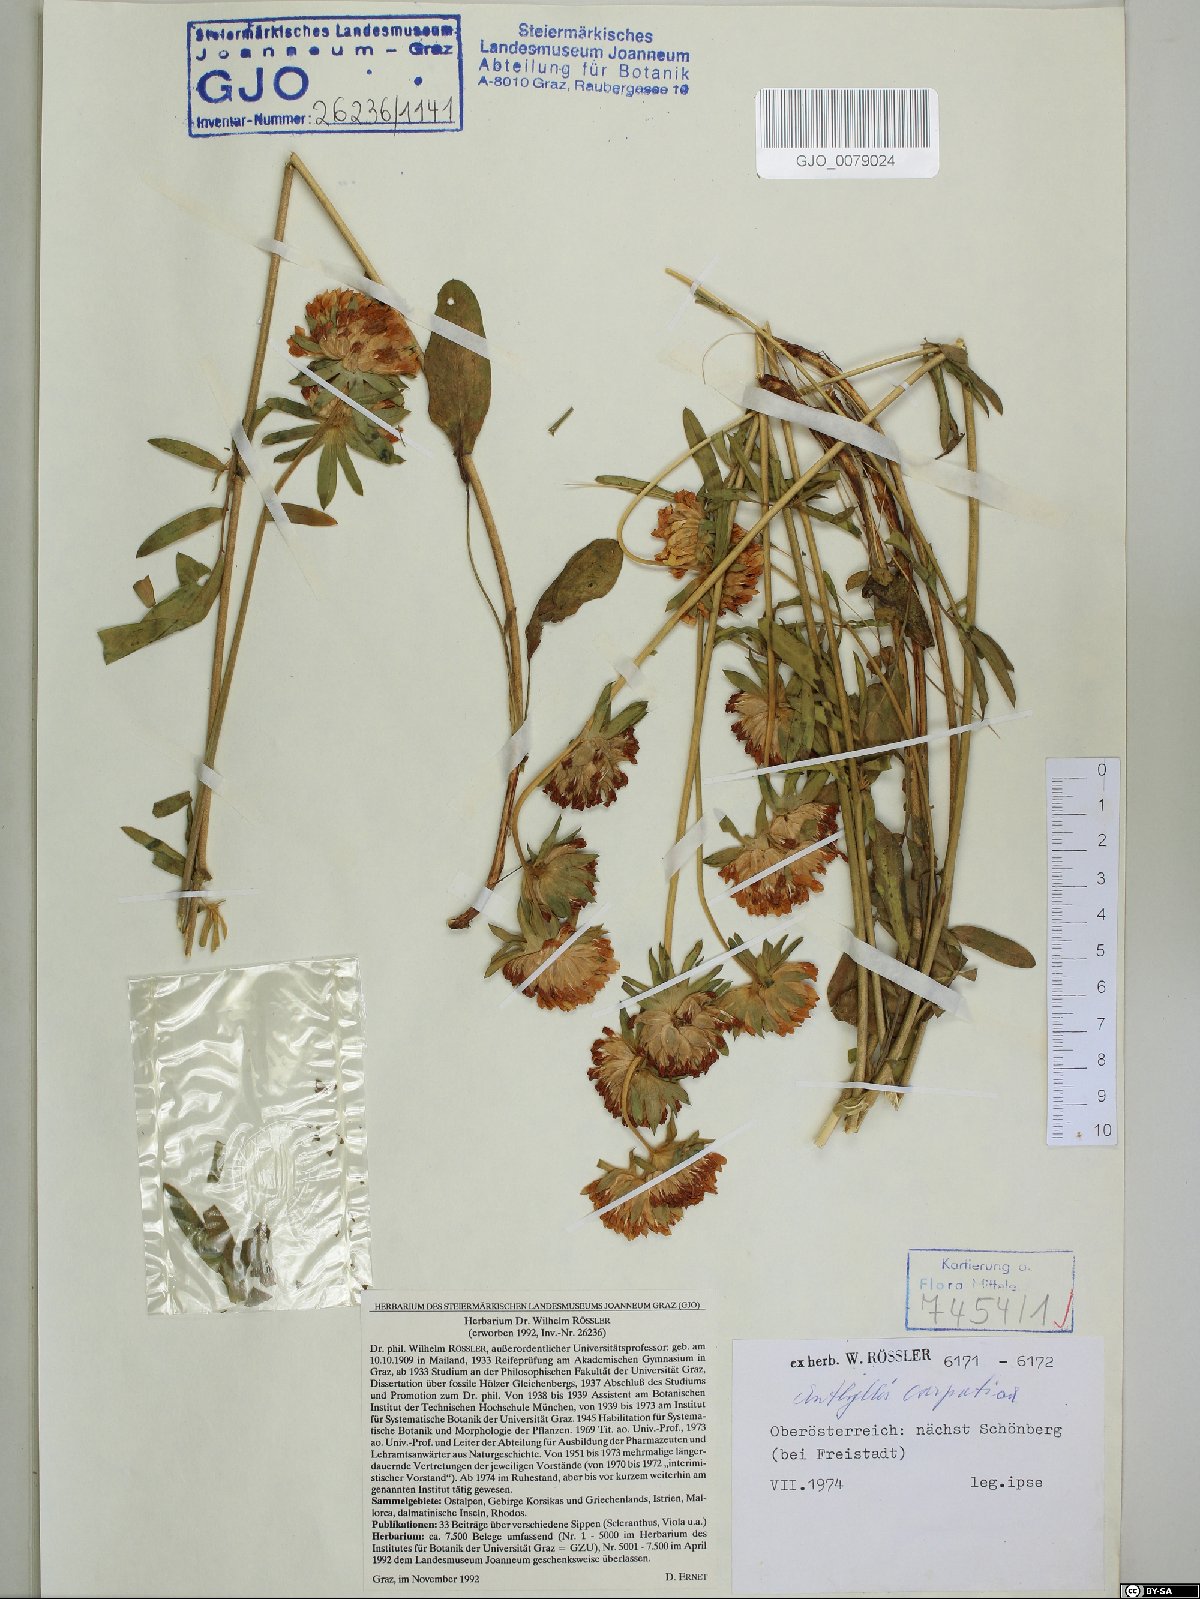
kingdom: Plantae
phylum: Tracheophyta
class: Magnoliopsida
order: Fabales
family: Fabaceae
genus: Anthyllis
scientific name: Anthyllis vulneraria
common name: Kidney vetch
